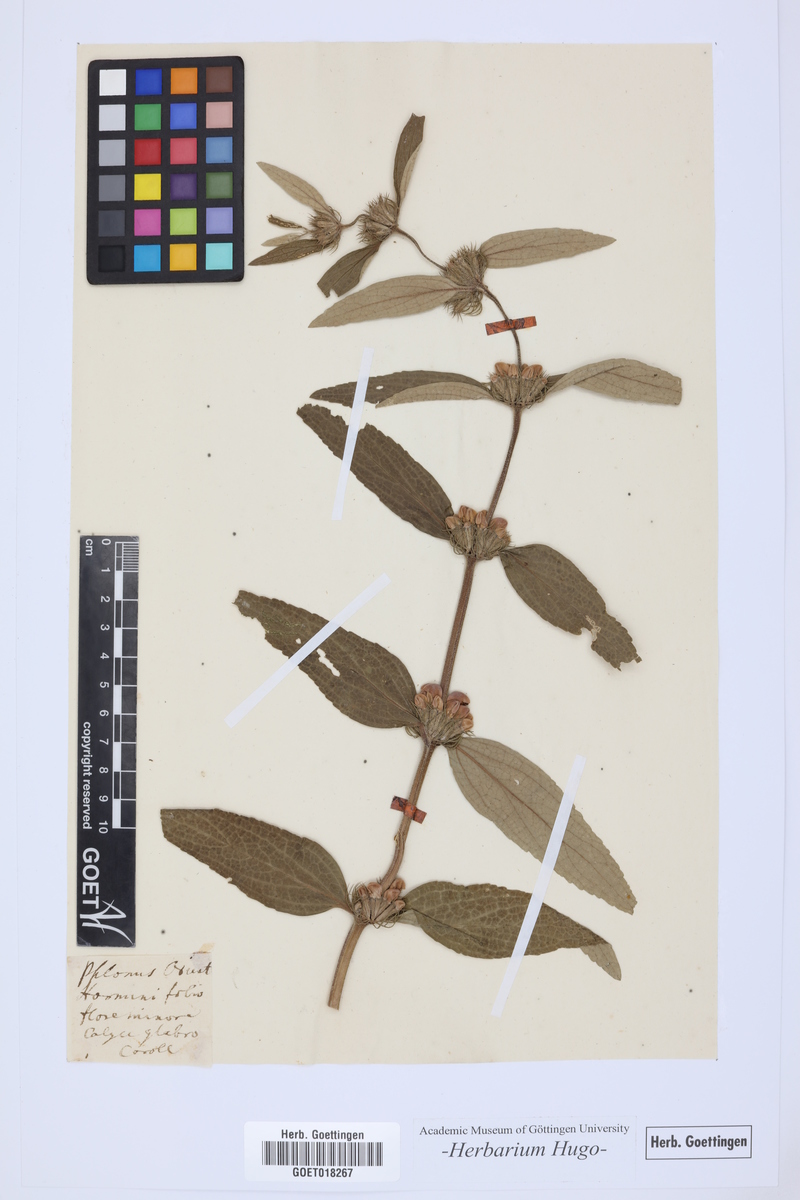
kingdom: Plantae
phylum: Tracheophyta
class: Magnoliopsida
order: Lamiales
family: Lamiaceae
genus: Phlomis
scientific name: Phlomis
